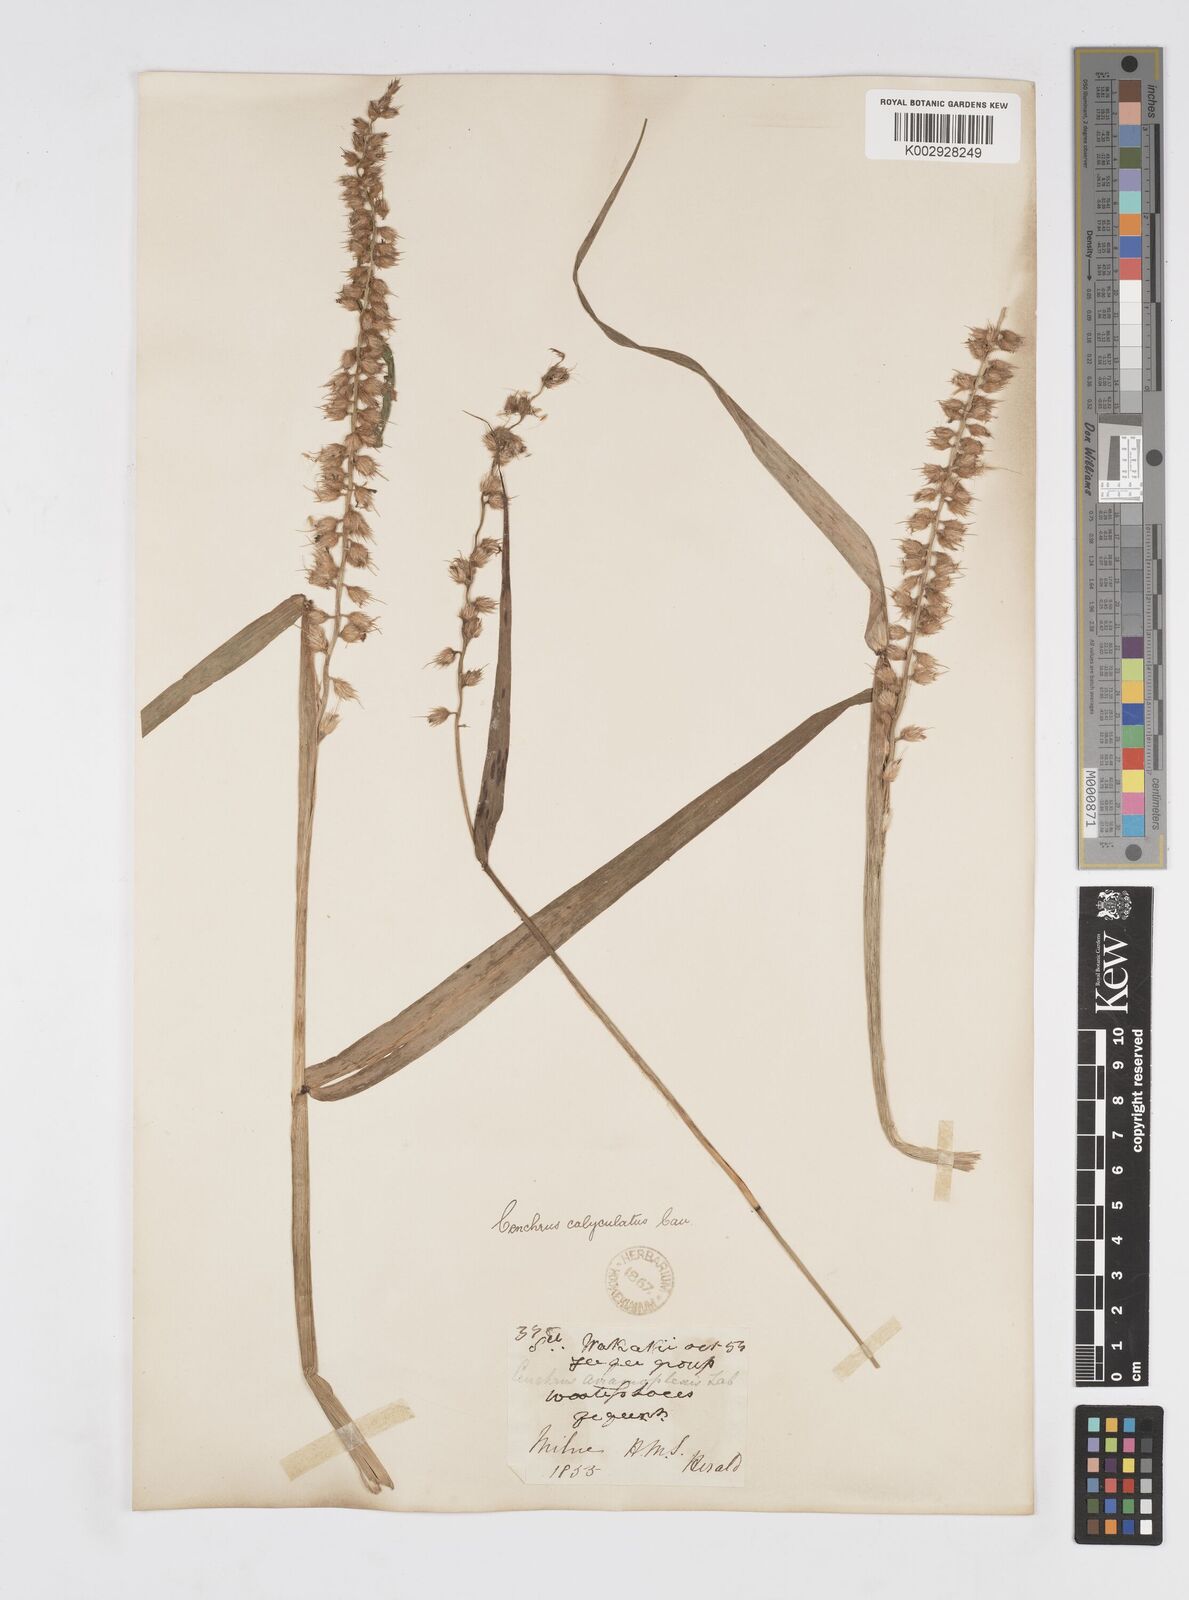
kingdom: Plantae
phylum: Tracheophyta
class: Liliopsida
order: Poales
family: Poaceae
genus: Cenchrus
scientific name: Cenchrus caliculatus
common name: Large bur grass
